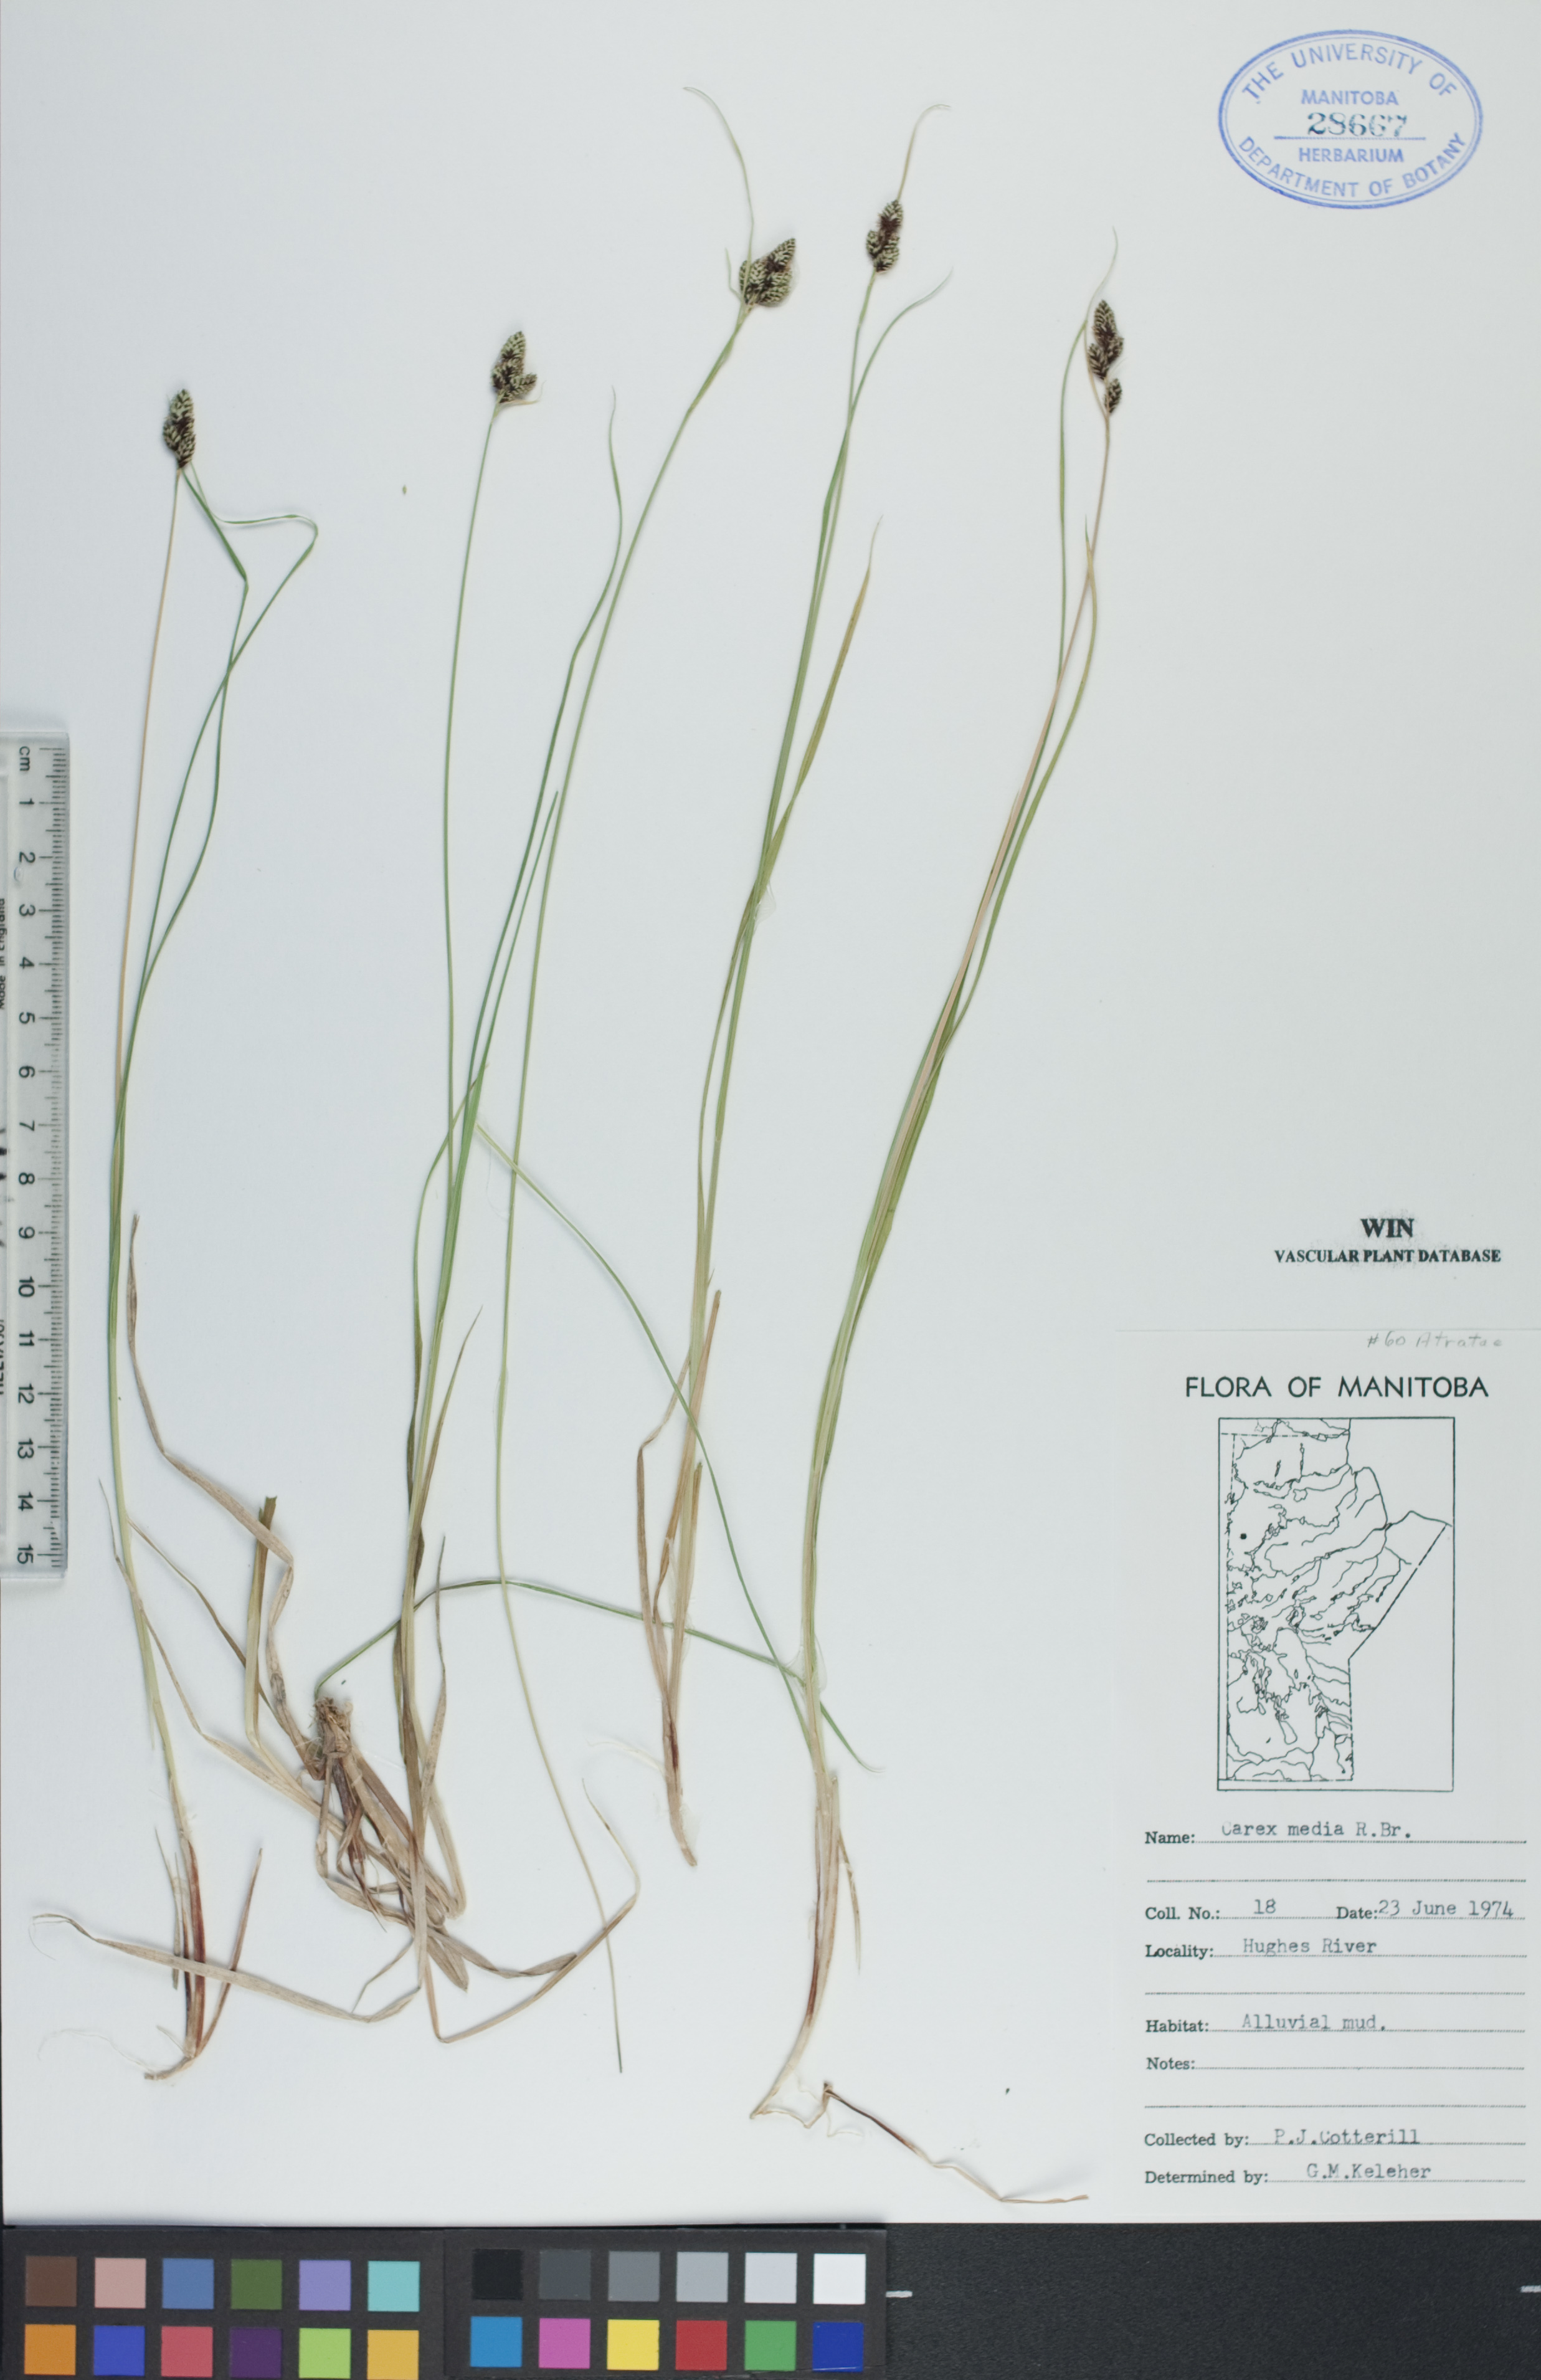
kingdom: Plantae
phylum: Tracheophyta
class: Liliopsida
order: Poales
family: Cyperaceae
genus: Carex
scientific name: Carex media
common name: Alpine sedge
